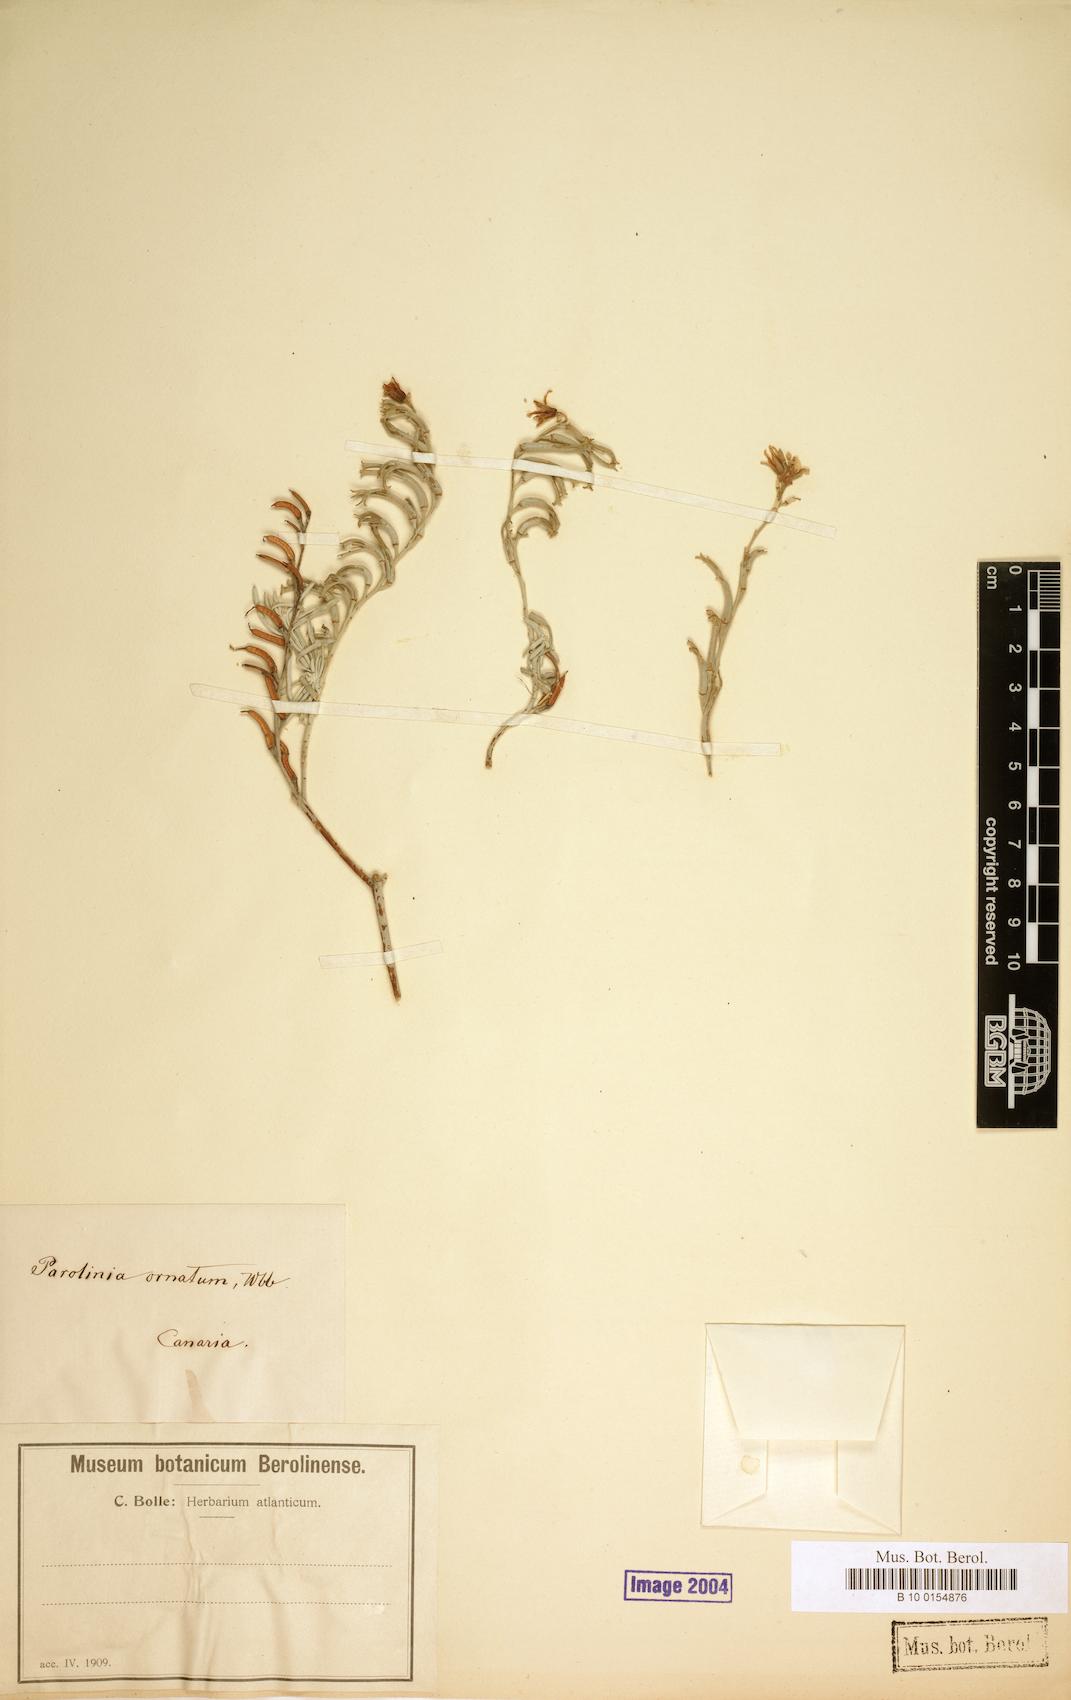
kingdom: Plantae
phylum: Tracheophyta
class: Magnoliopsida
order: Brassicales
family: Brassicaceae
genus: Parolinia
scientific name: Parolinia ornata
